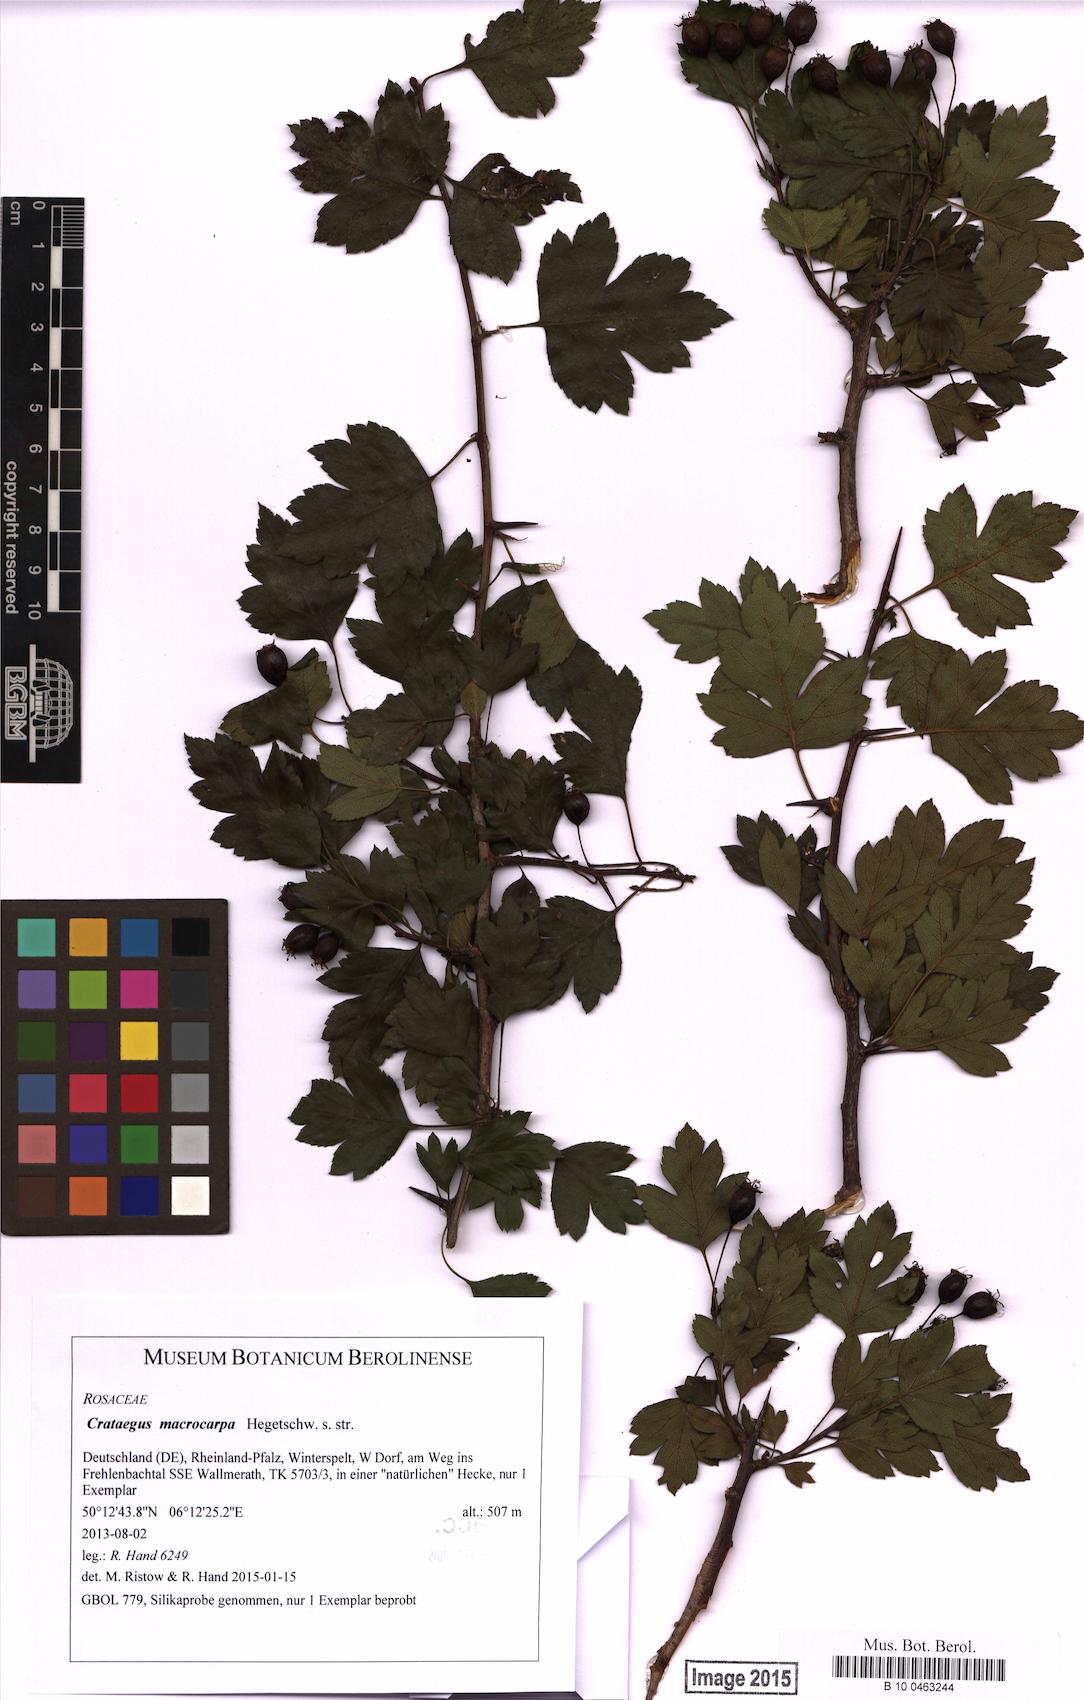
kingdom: Plantae
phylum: Tracheophyta
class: Magnoliopsida
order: Rosales
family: Rosaceae
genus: Crataegus
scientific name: Crataegus macrocarpa
